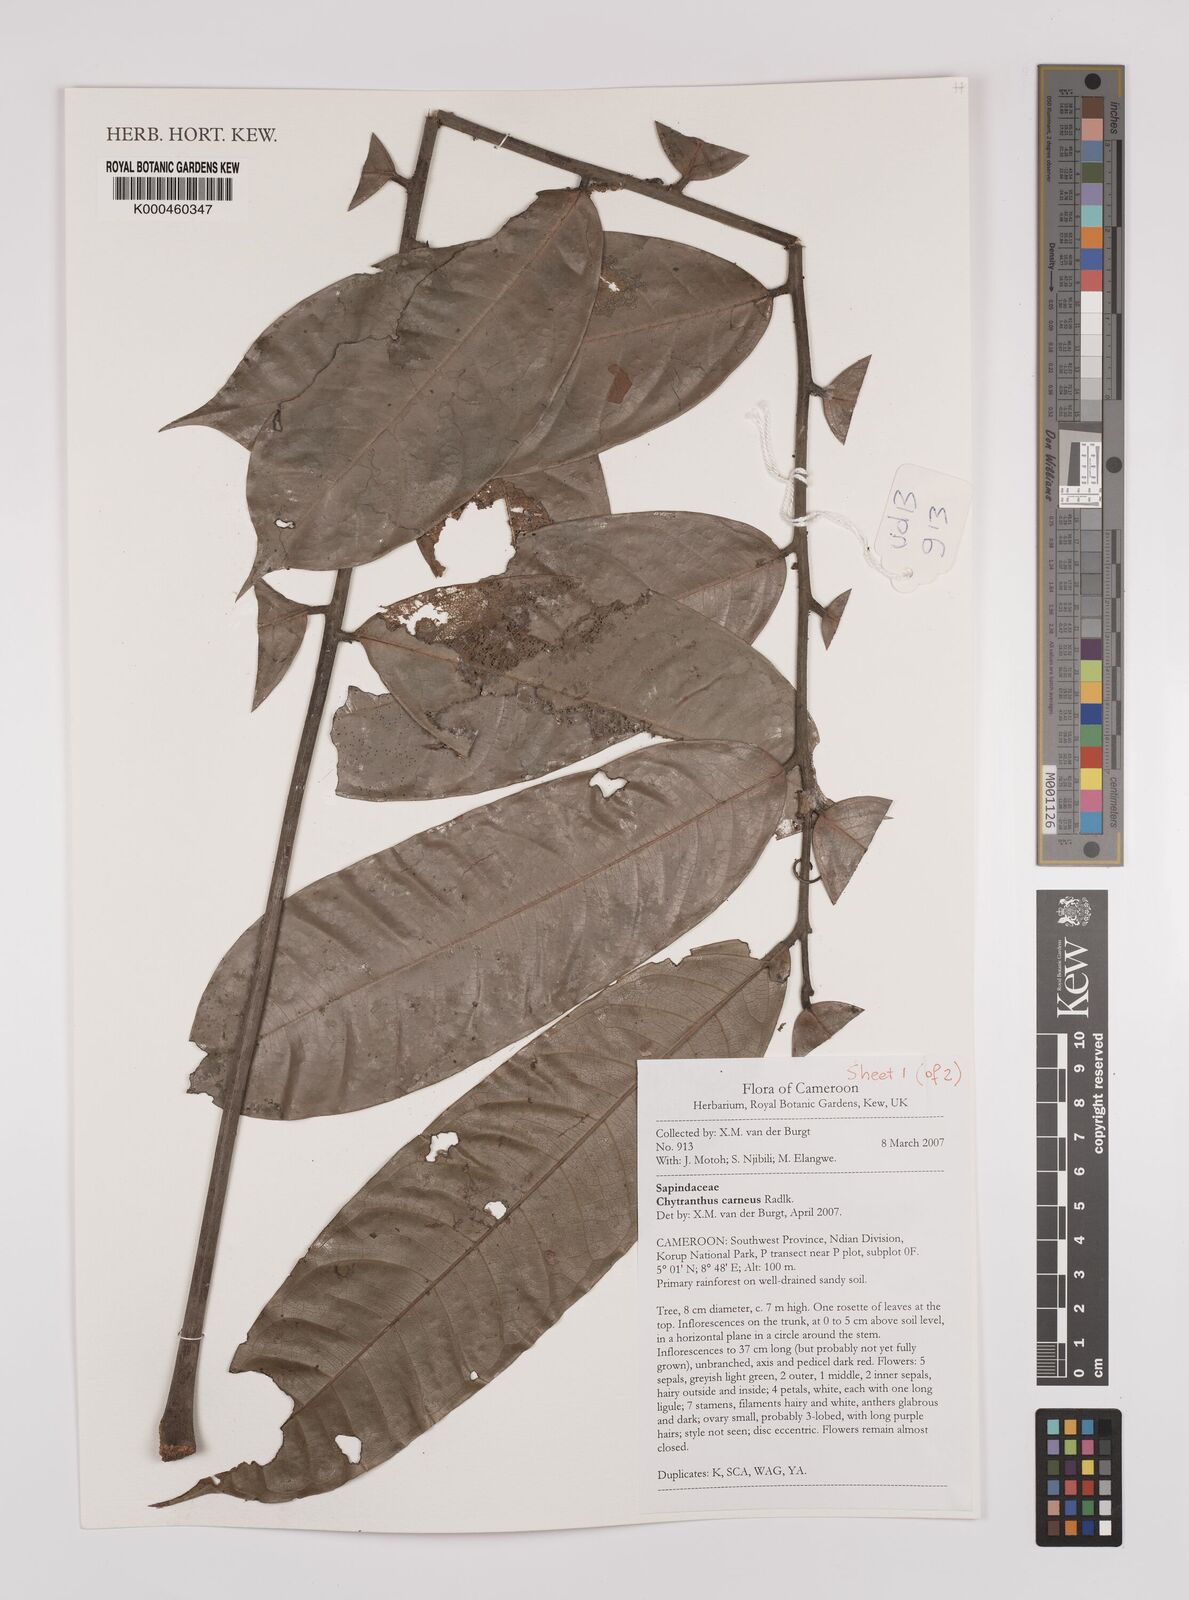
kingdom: Plantae
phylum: Tracheophyta
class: Magnoliopsida
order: Sapindales
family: Sapindaceae
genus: Chytranthus
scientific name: Chytranthus carneus
